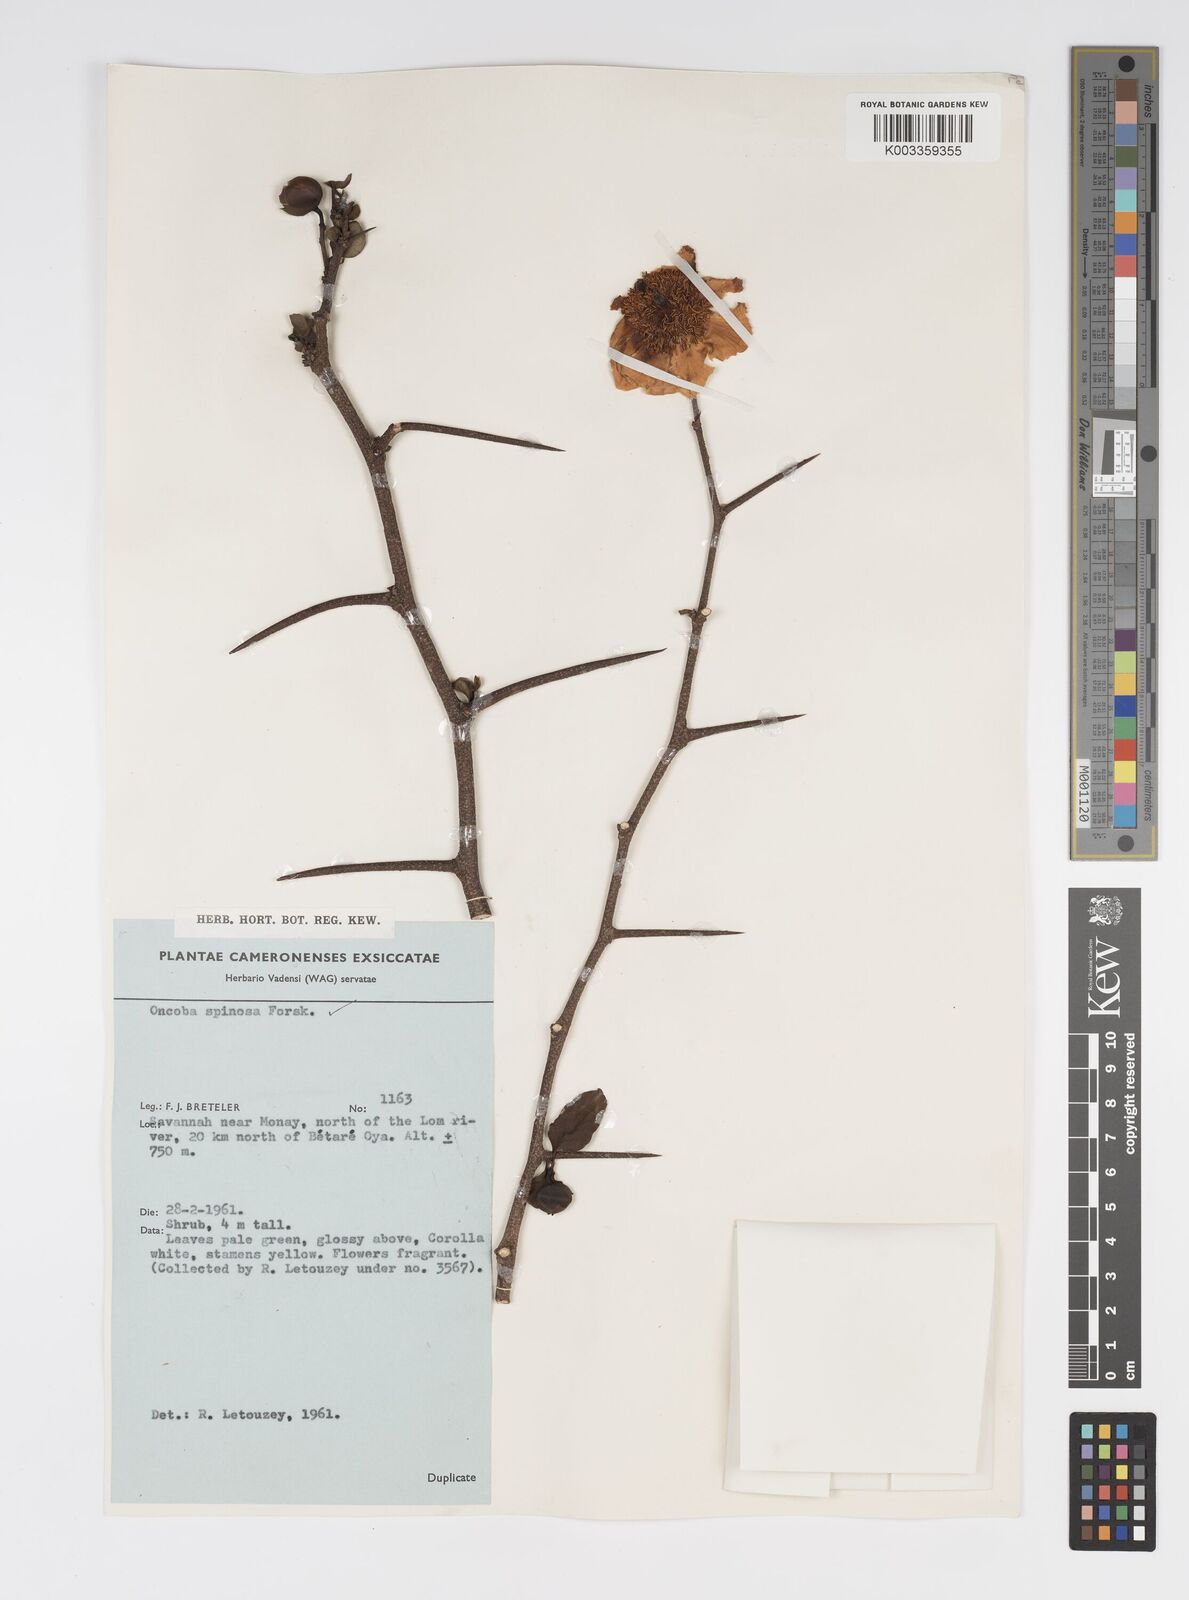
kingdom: Plantae
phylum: Tracheophyta
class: Magnoliopsida
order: Malpighiales
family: Salicaceae
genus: Oncoba
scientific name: Oncoba spinosa
